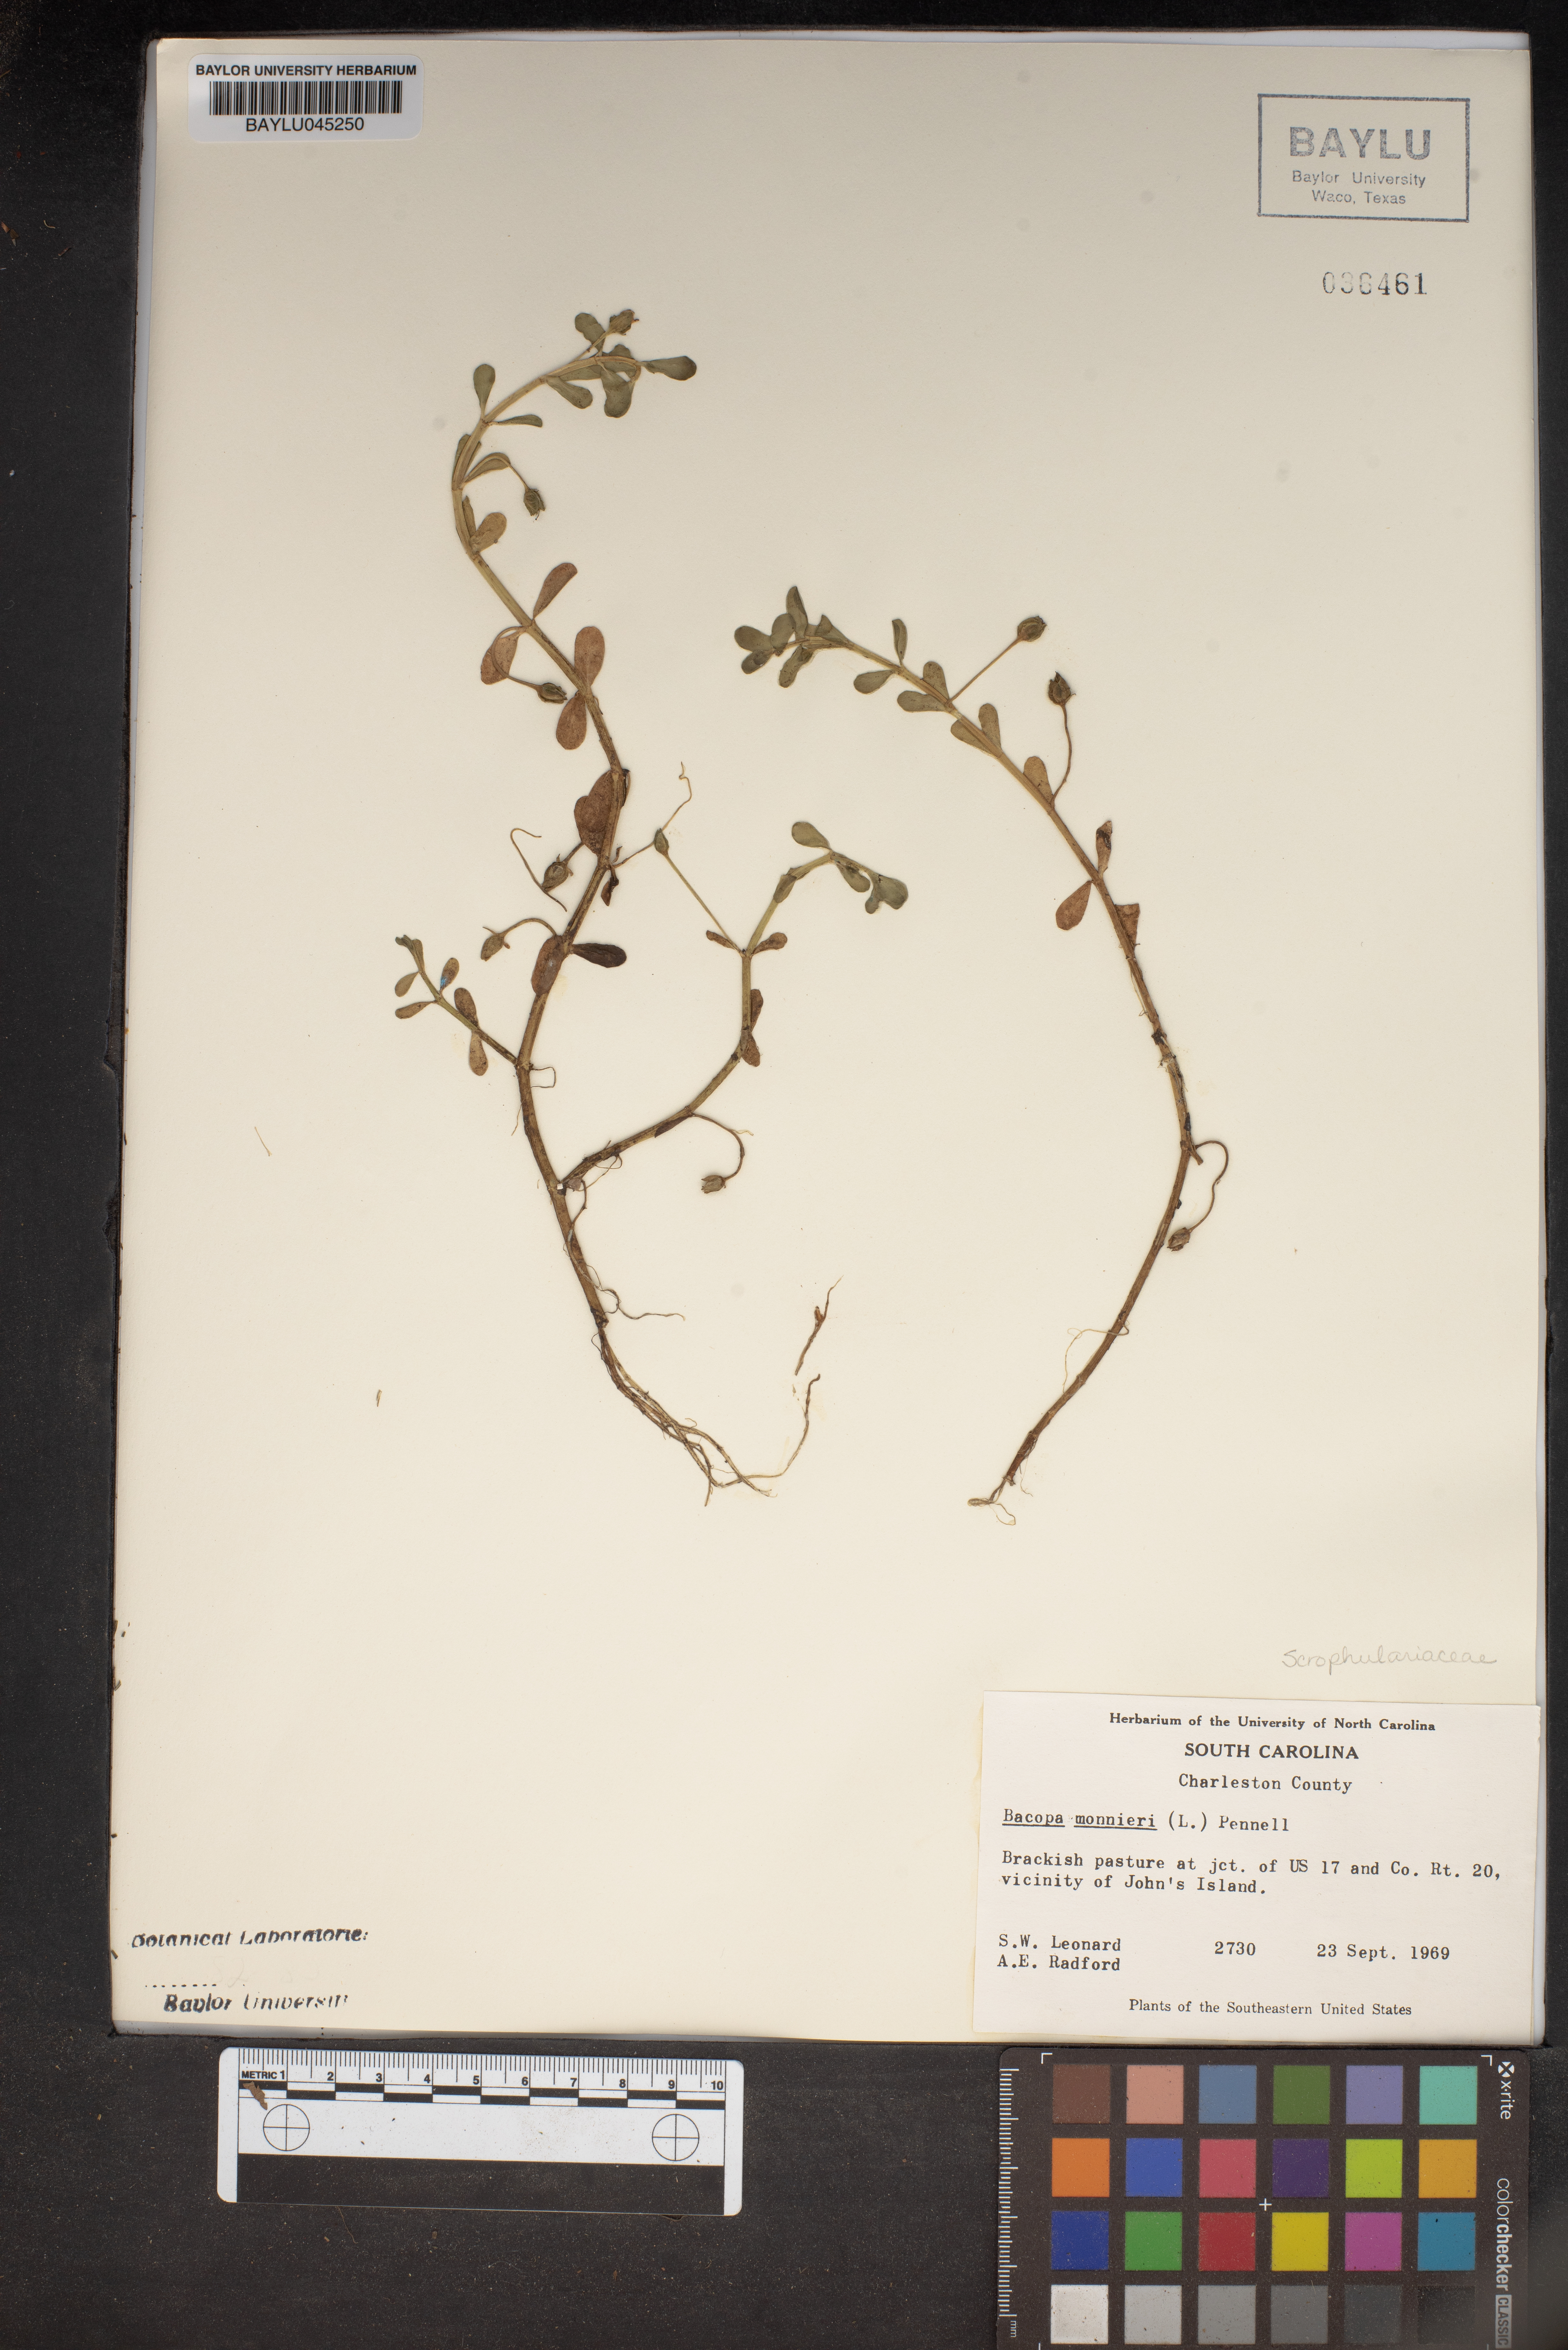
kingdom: Plantae
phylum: Tracheophyta
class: Magnoliopsida
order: Lamiales
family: Plantaginaceae
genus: Bacopa
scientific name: Bacopa monnieri
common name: Indian-pennywort
